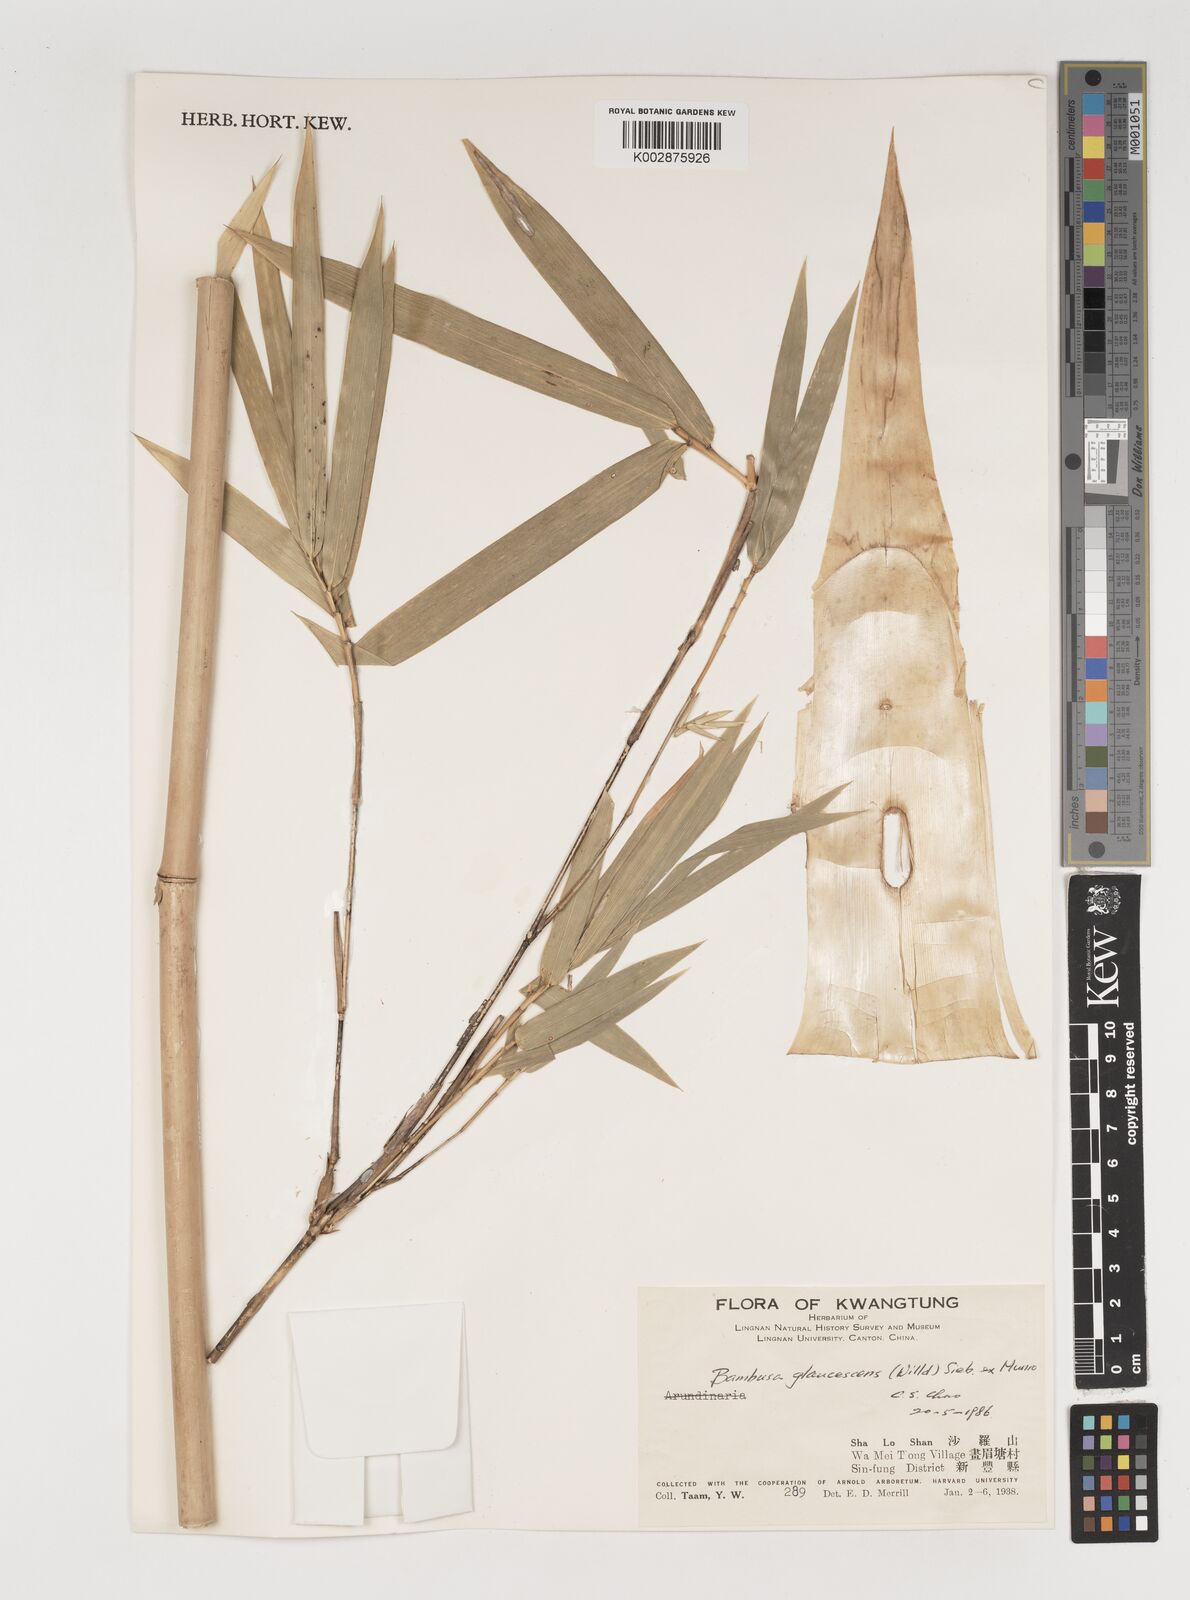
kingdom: Plantae
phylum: Tracheophyta
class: Liliopsida
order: Poales
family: Poaceae
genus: Bambusa
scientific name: Bambusa multiplex
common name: Hedge bamboo
